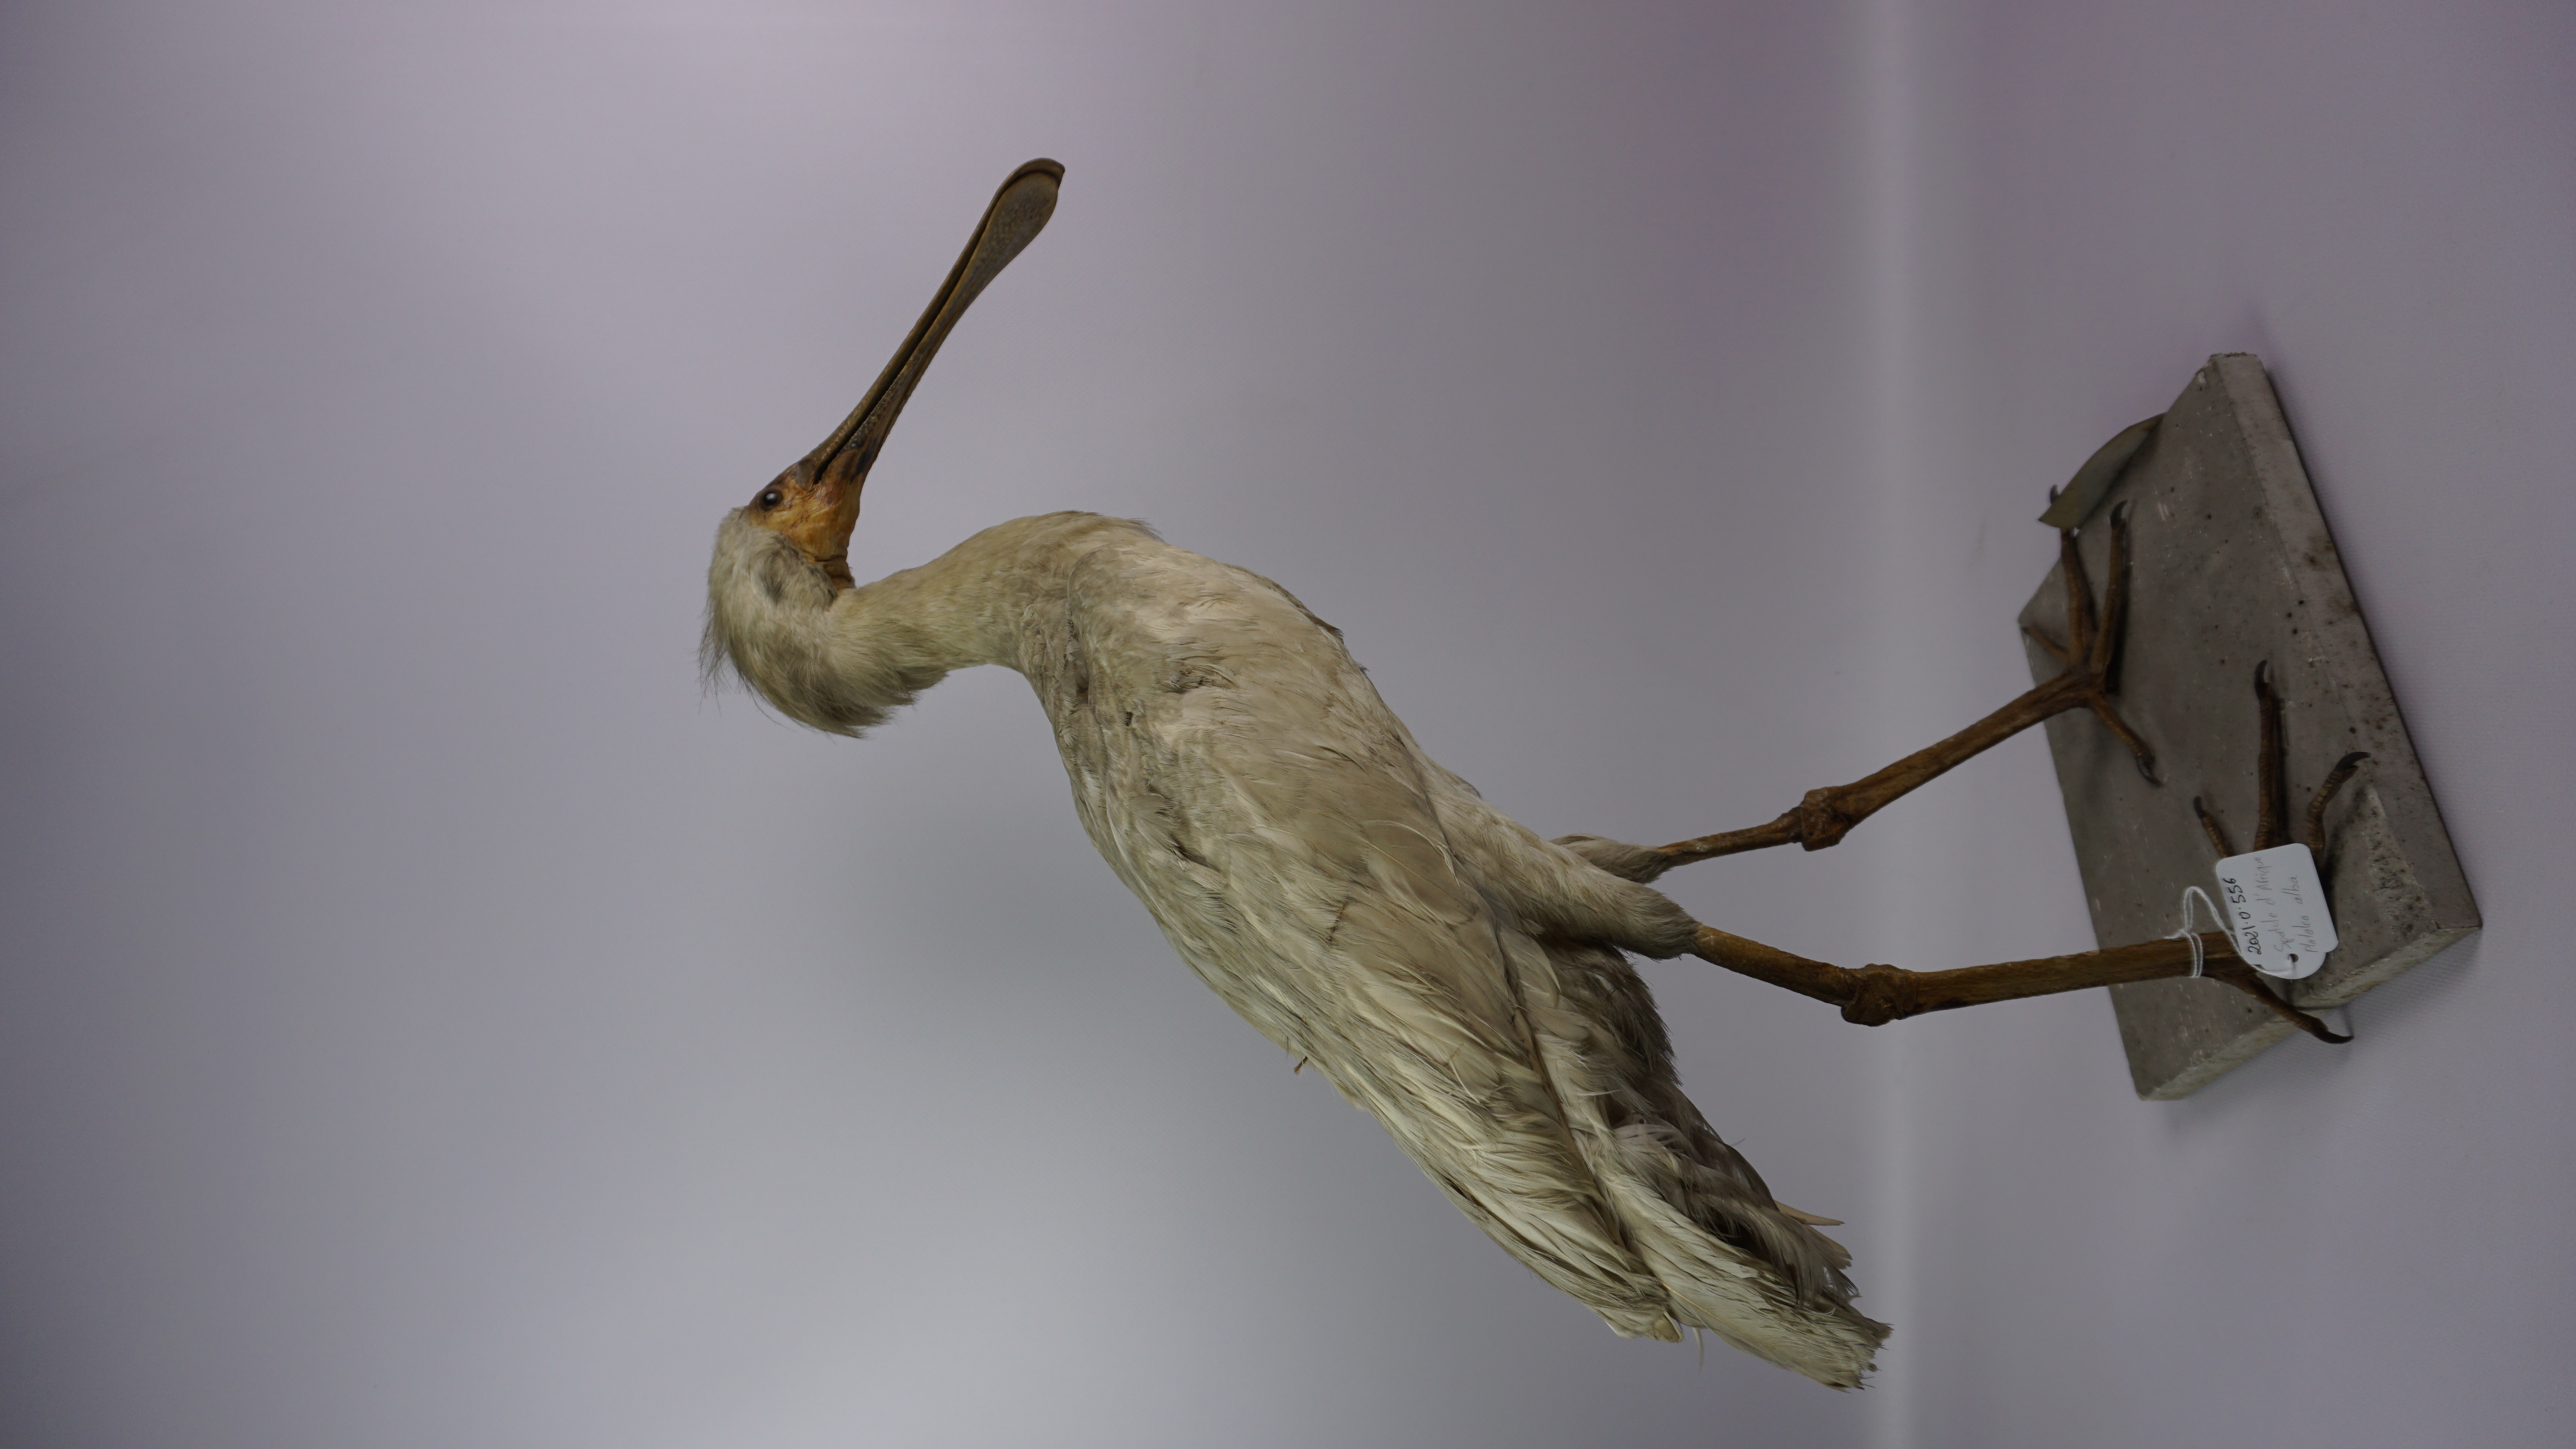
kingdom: Animalia
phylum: Chordata
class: Aves
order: Pelecaniformes
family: Threskiornithidae
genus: Platalea
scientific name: Platalea alba
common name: African spoonbill
